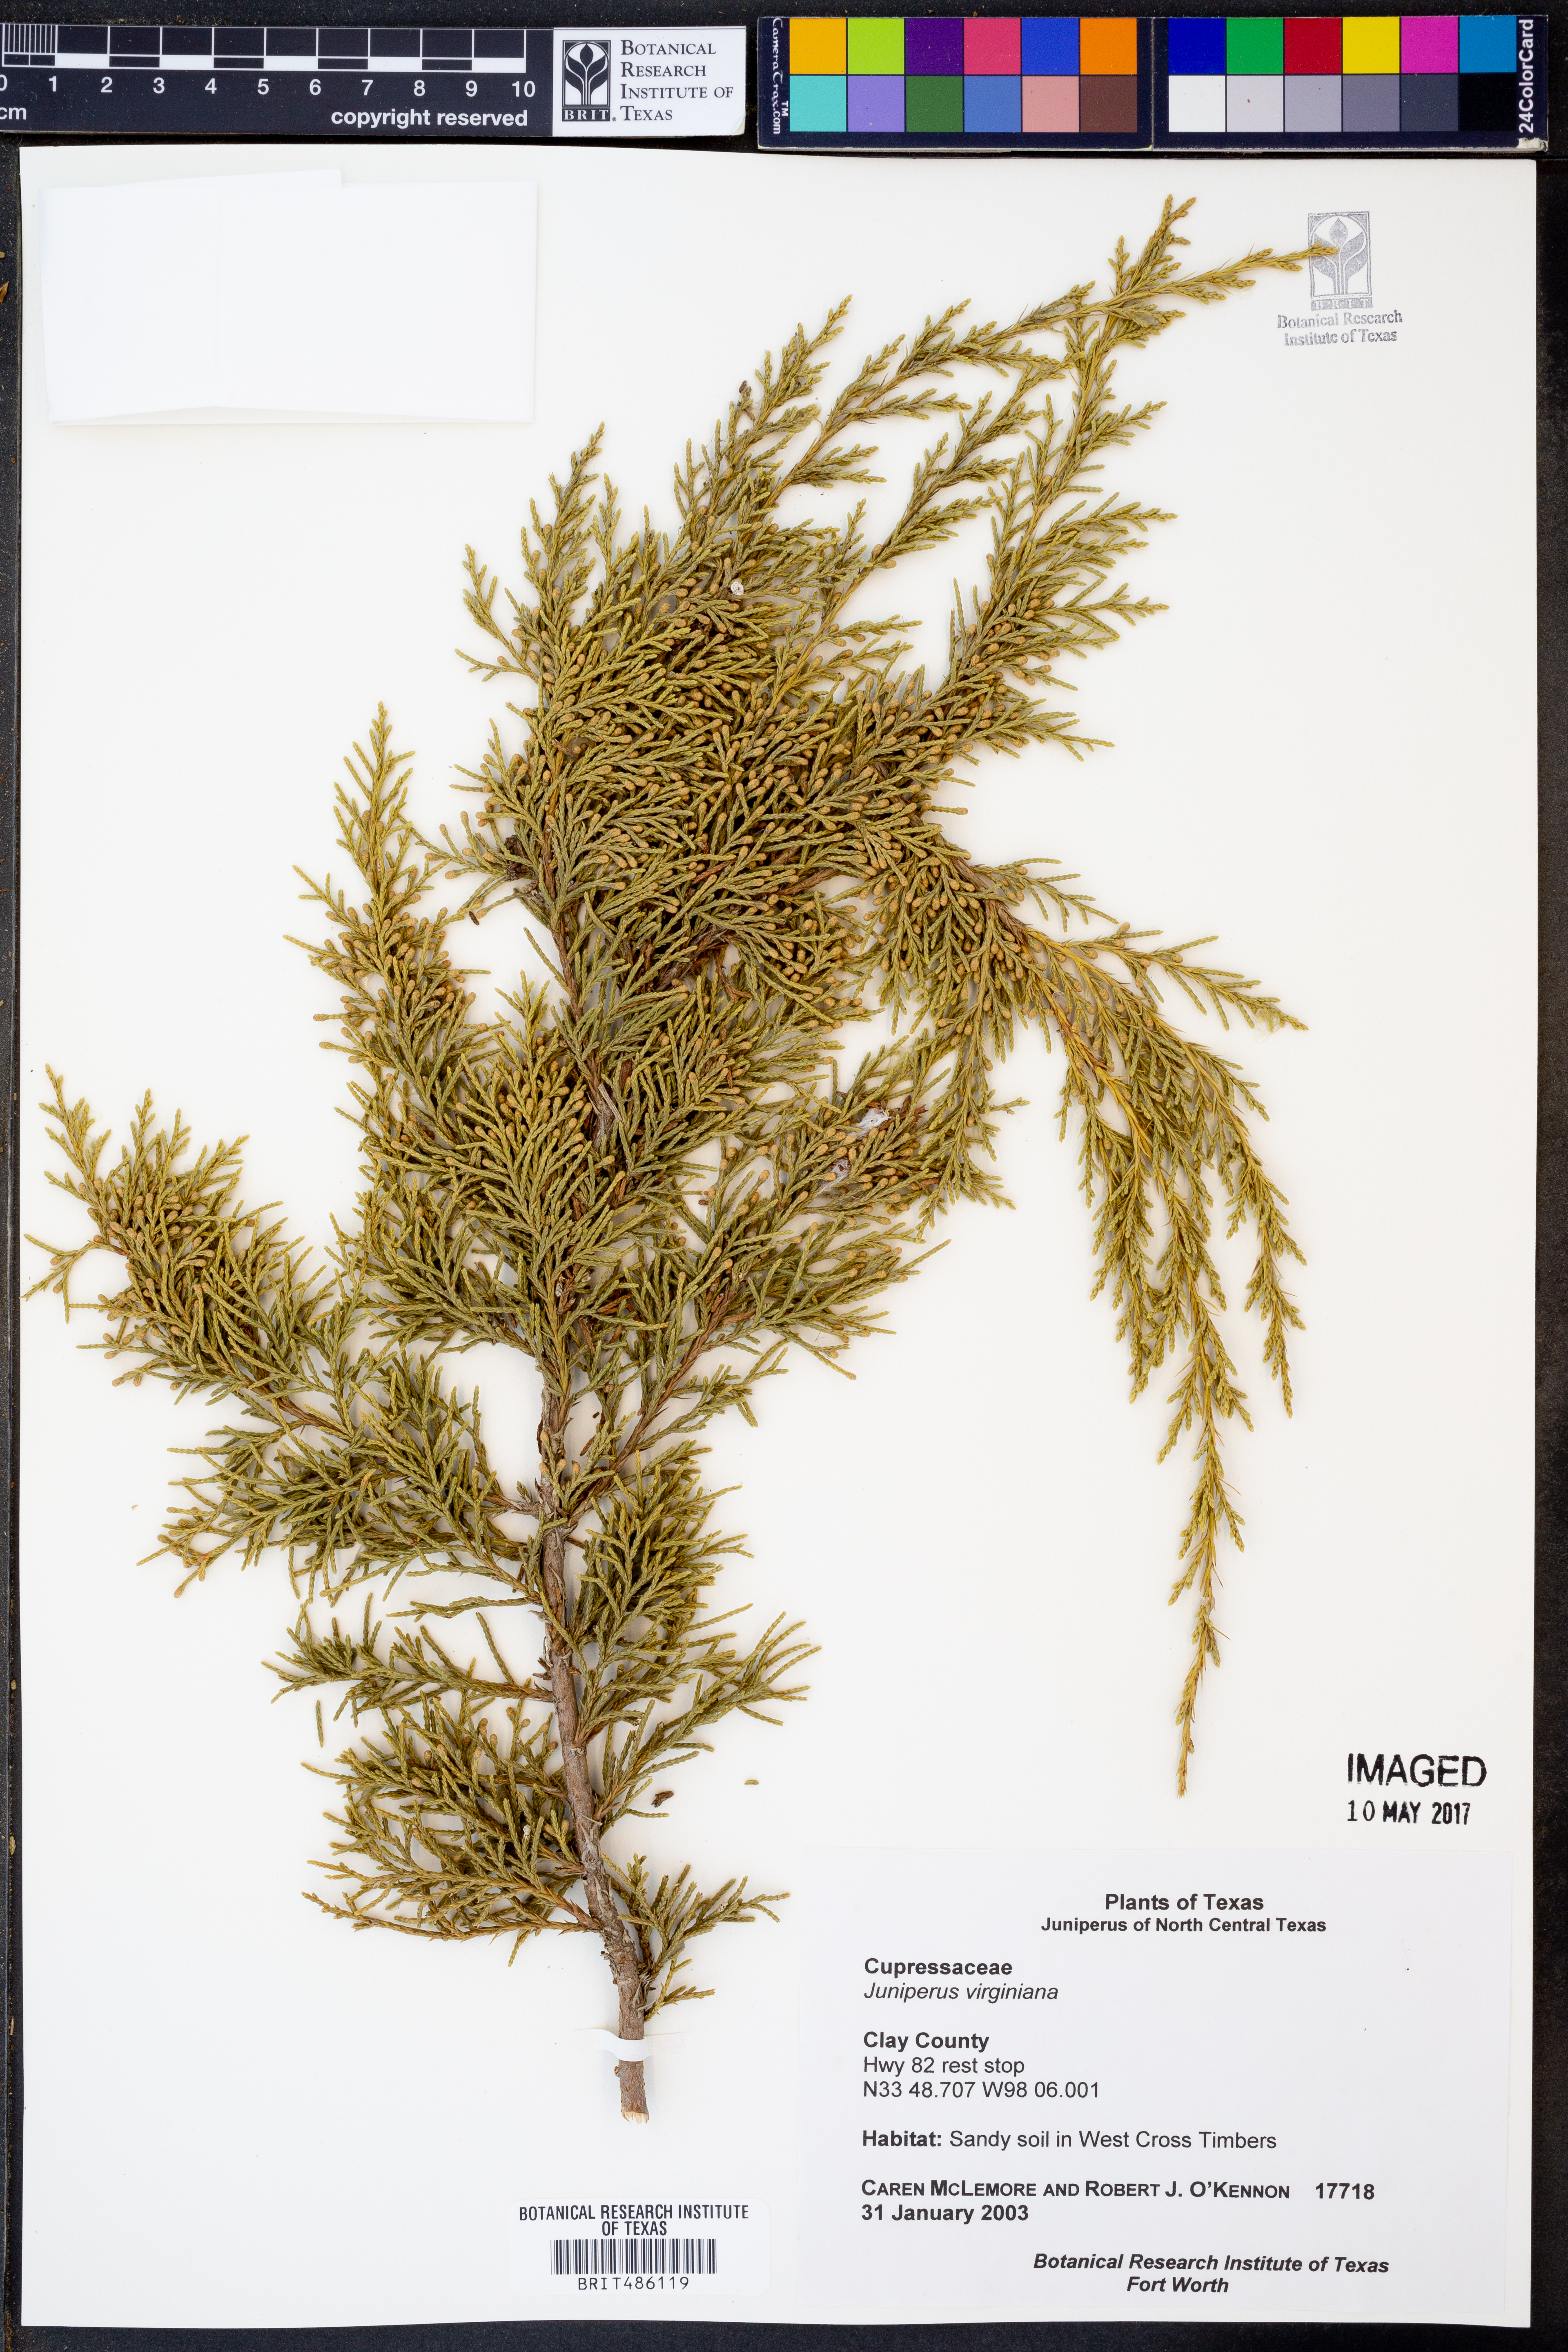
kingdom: Plantae
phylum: Tracheophyta
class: Pinopsida
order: Pinales
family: Cupressaceae
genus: Juniperus
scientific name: Juniperus virginiana
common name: Red juniper
